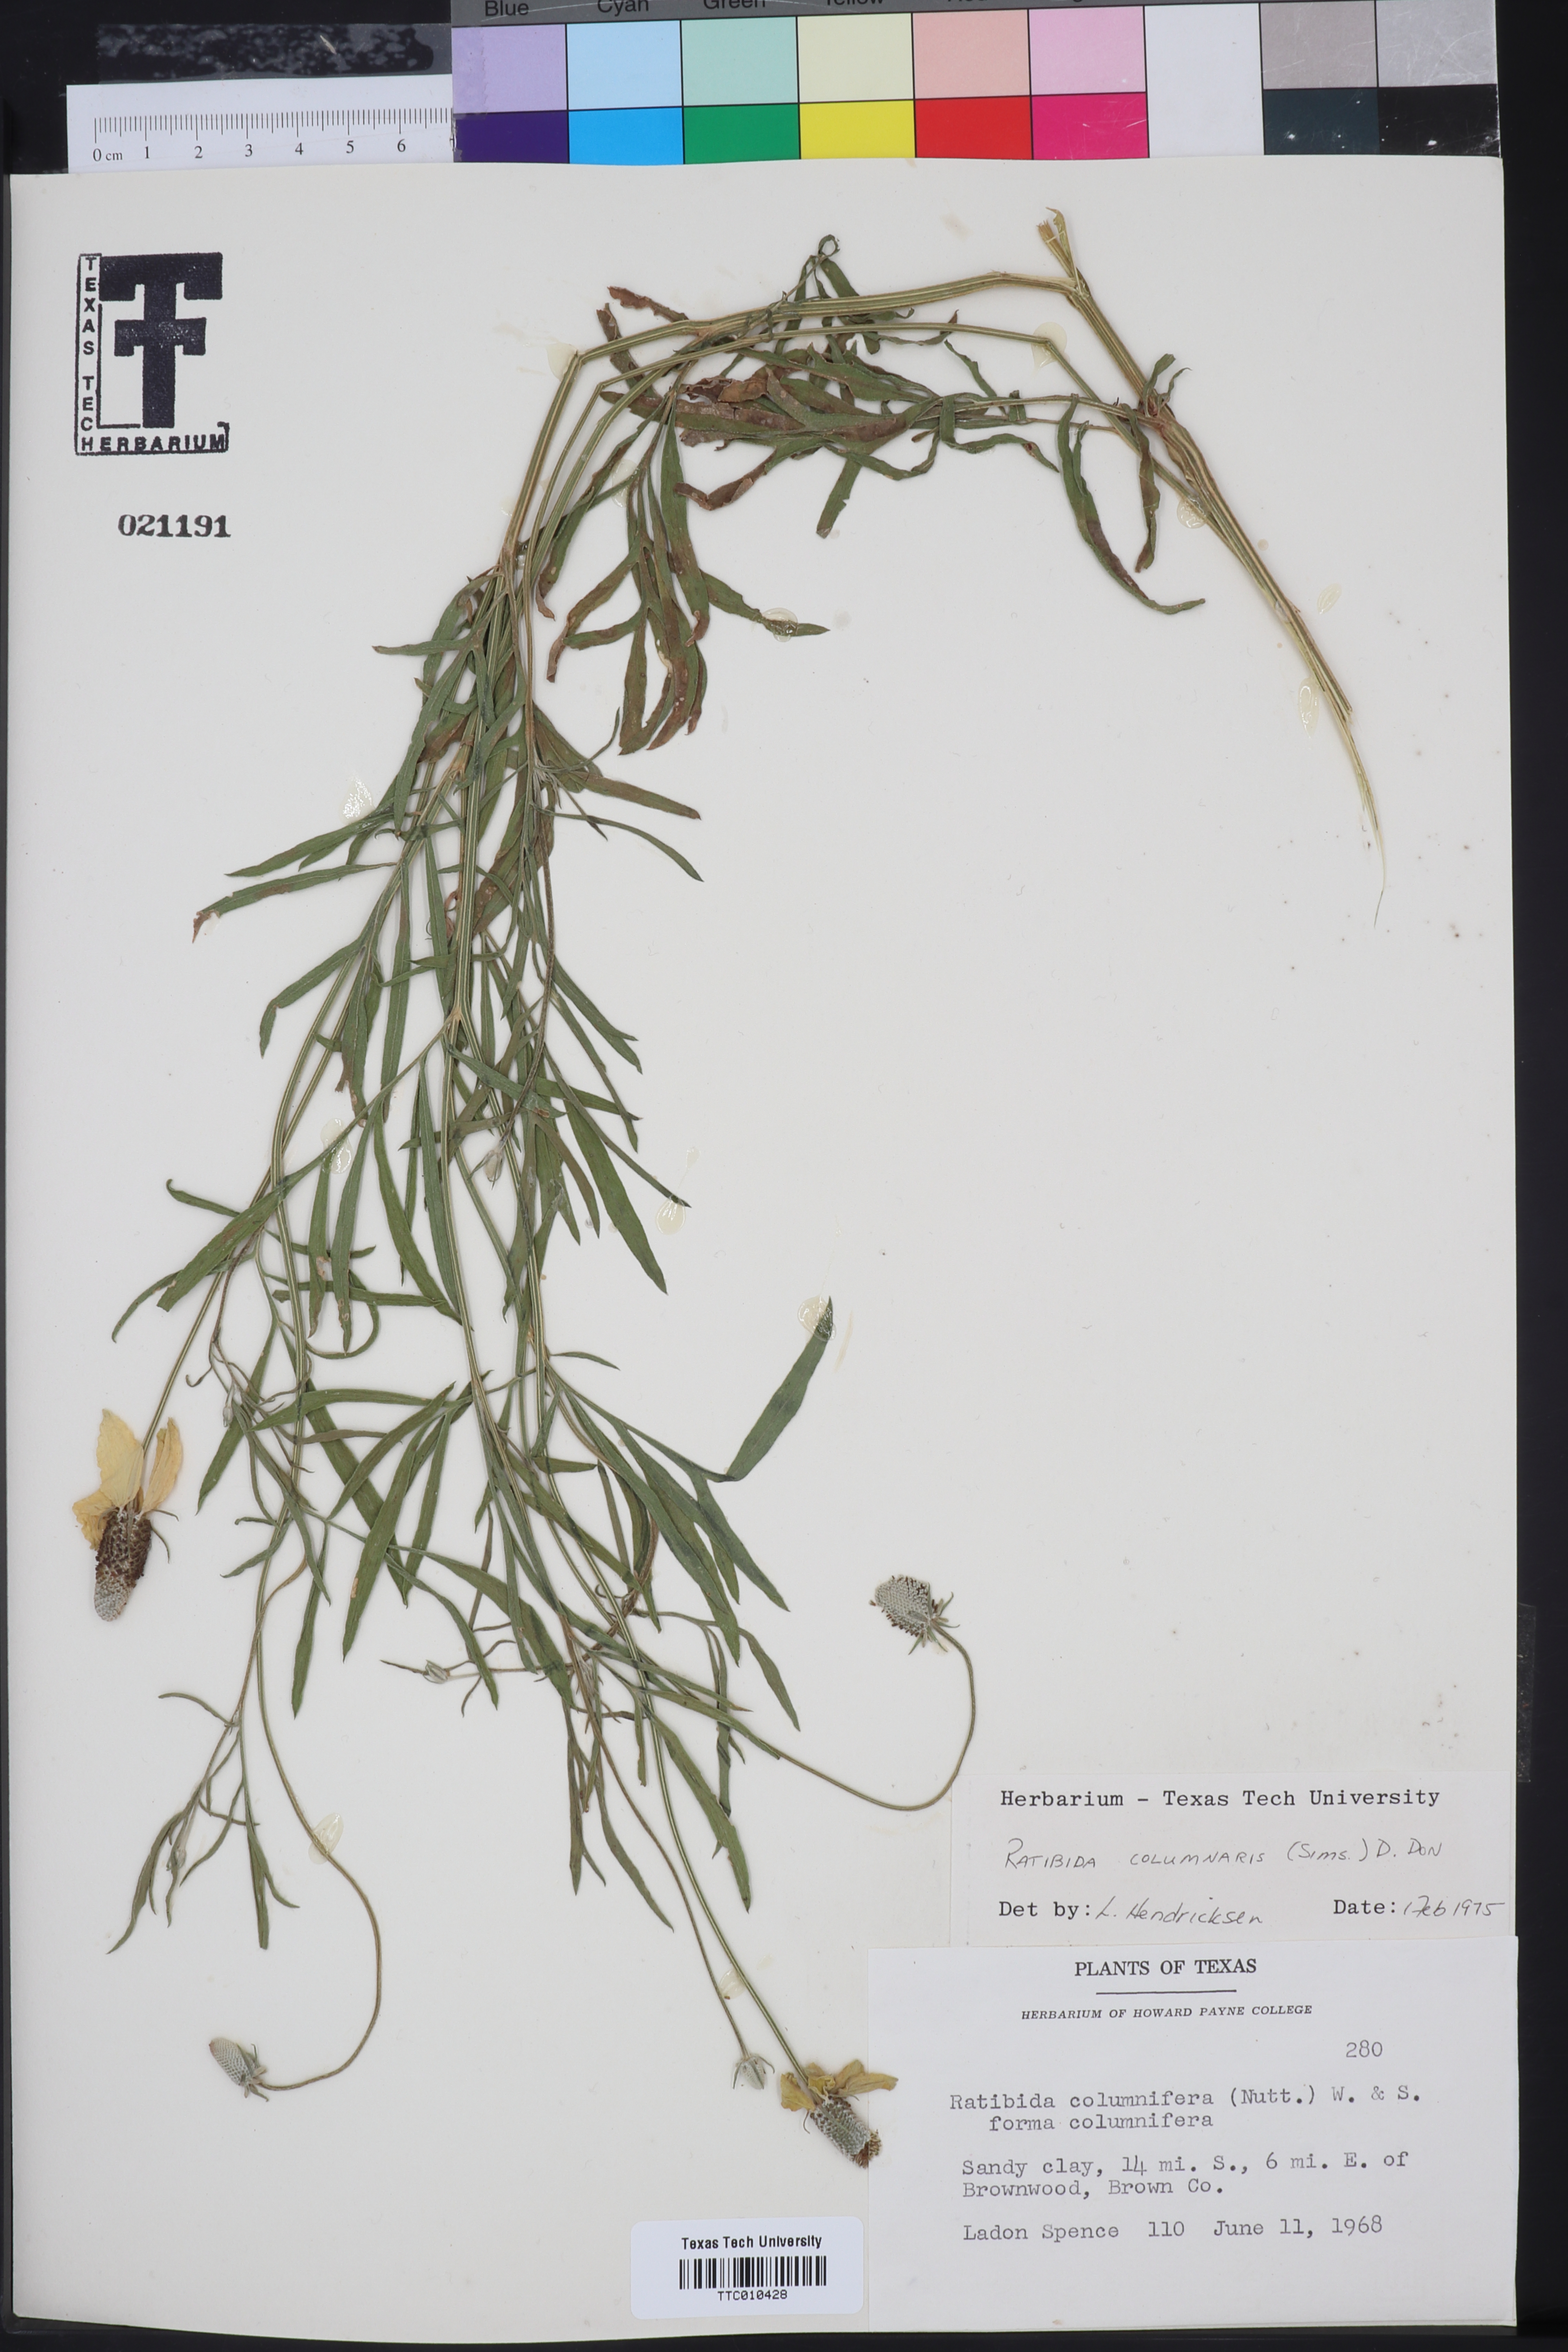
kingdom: Plantae
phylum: Tracheophyta
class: Magnoliopsida
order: Asterales
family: Asteraceae
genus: Ratibida
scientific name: Ratibida columnifera
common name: Prairie coneflower
